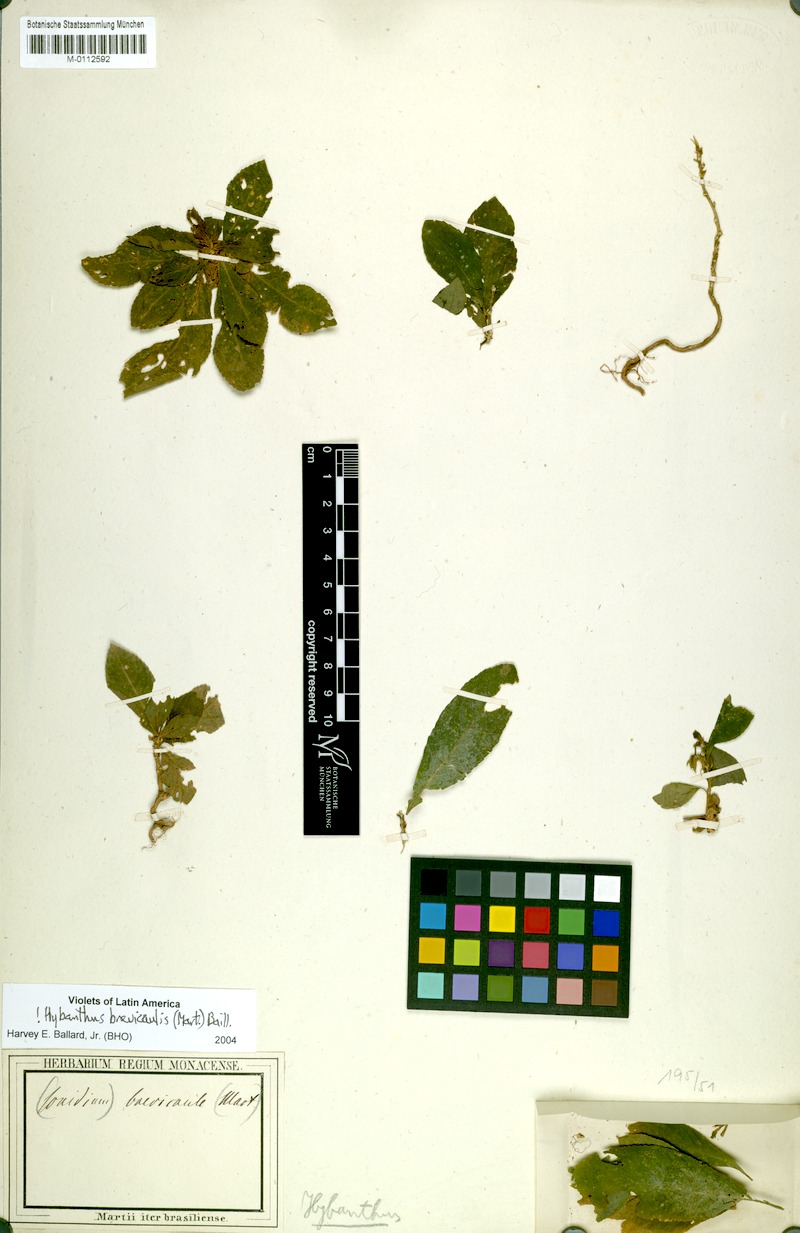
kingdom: Plantae
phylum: Tracheophyta
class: Magnoliopsida
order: Malpighiales
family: Violaceae
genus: Pombalia
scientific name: Pombalia brevicaulis
